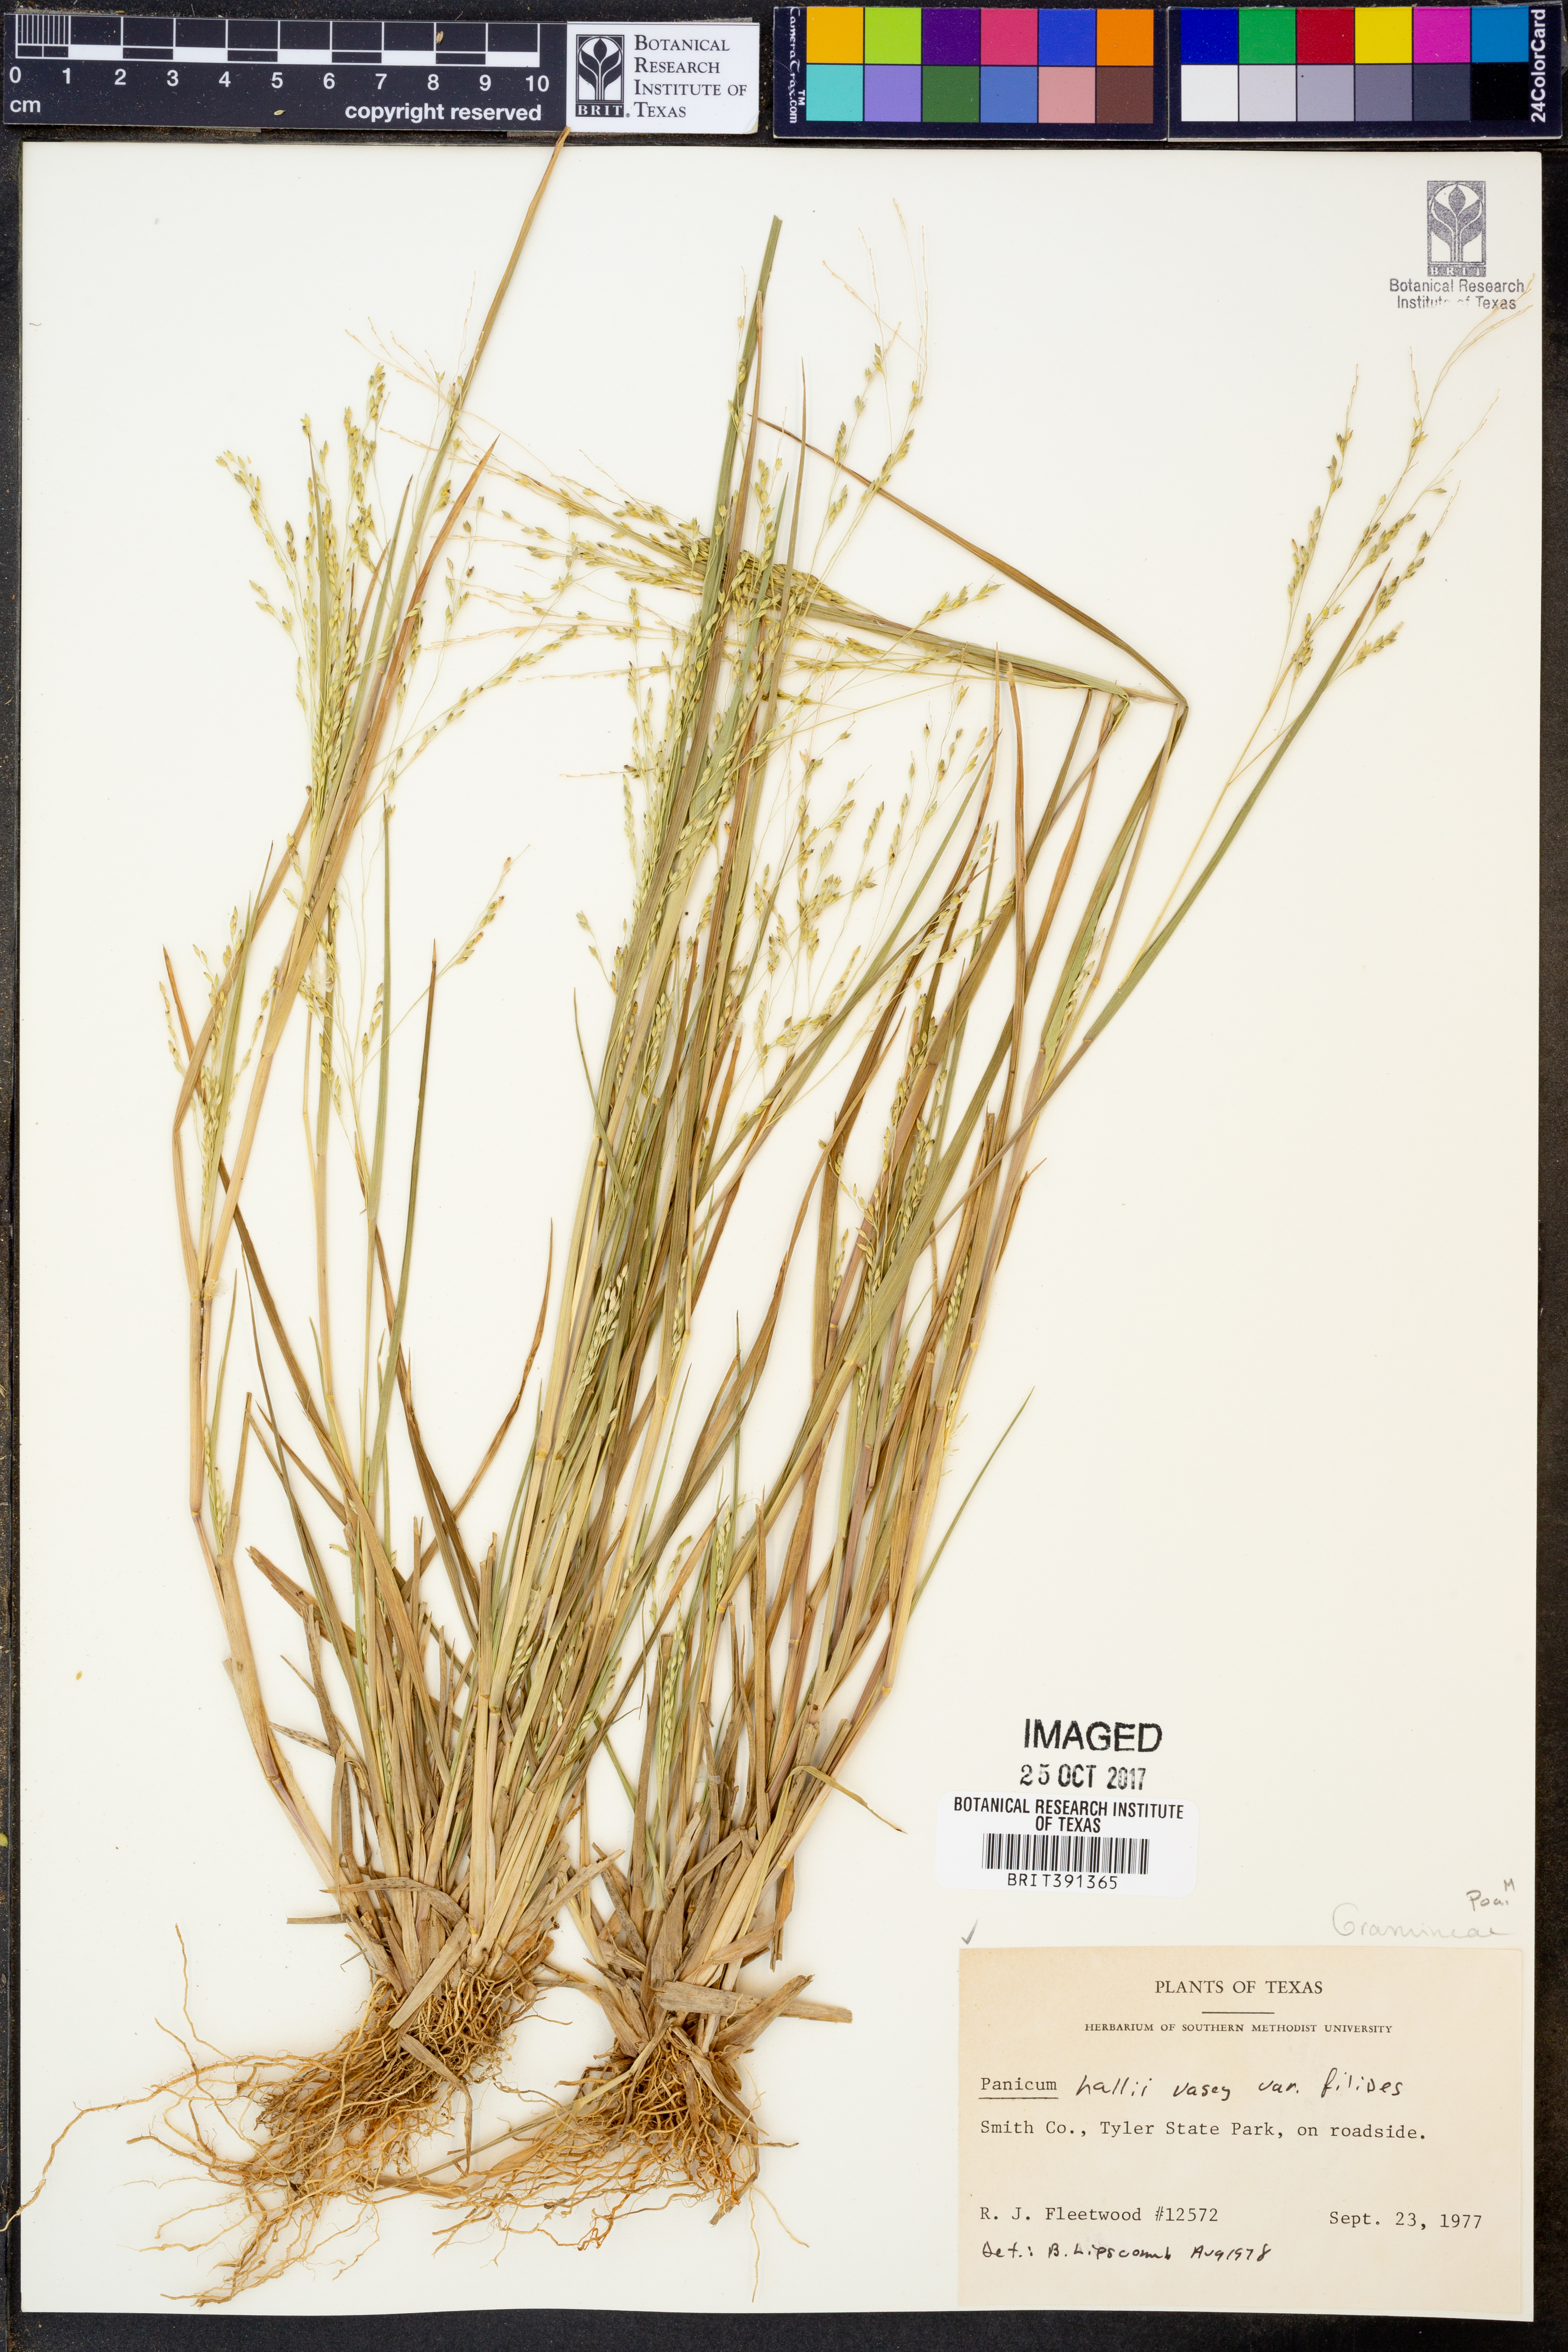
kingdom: Plantae
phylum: Tracheophyta
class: Liliopsida
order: Poales
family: Poaceae
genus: Panicum
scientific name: Panicum hallii
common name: Hall's witchgrass
